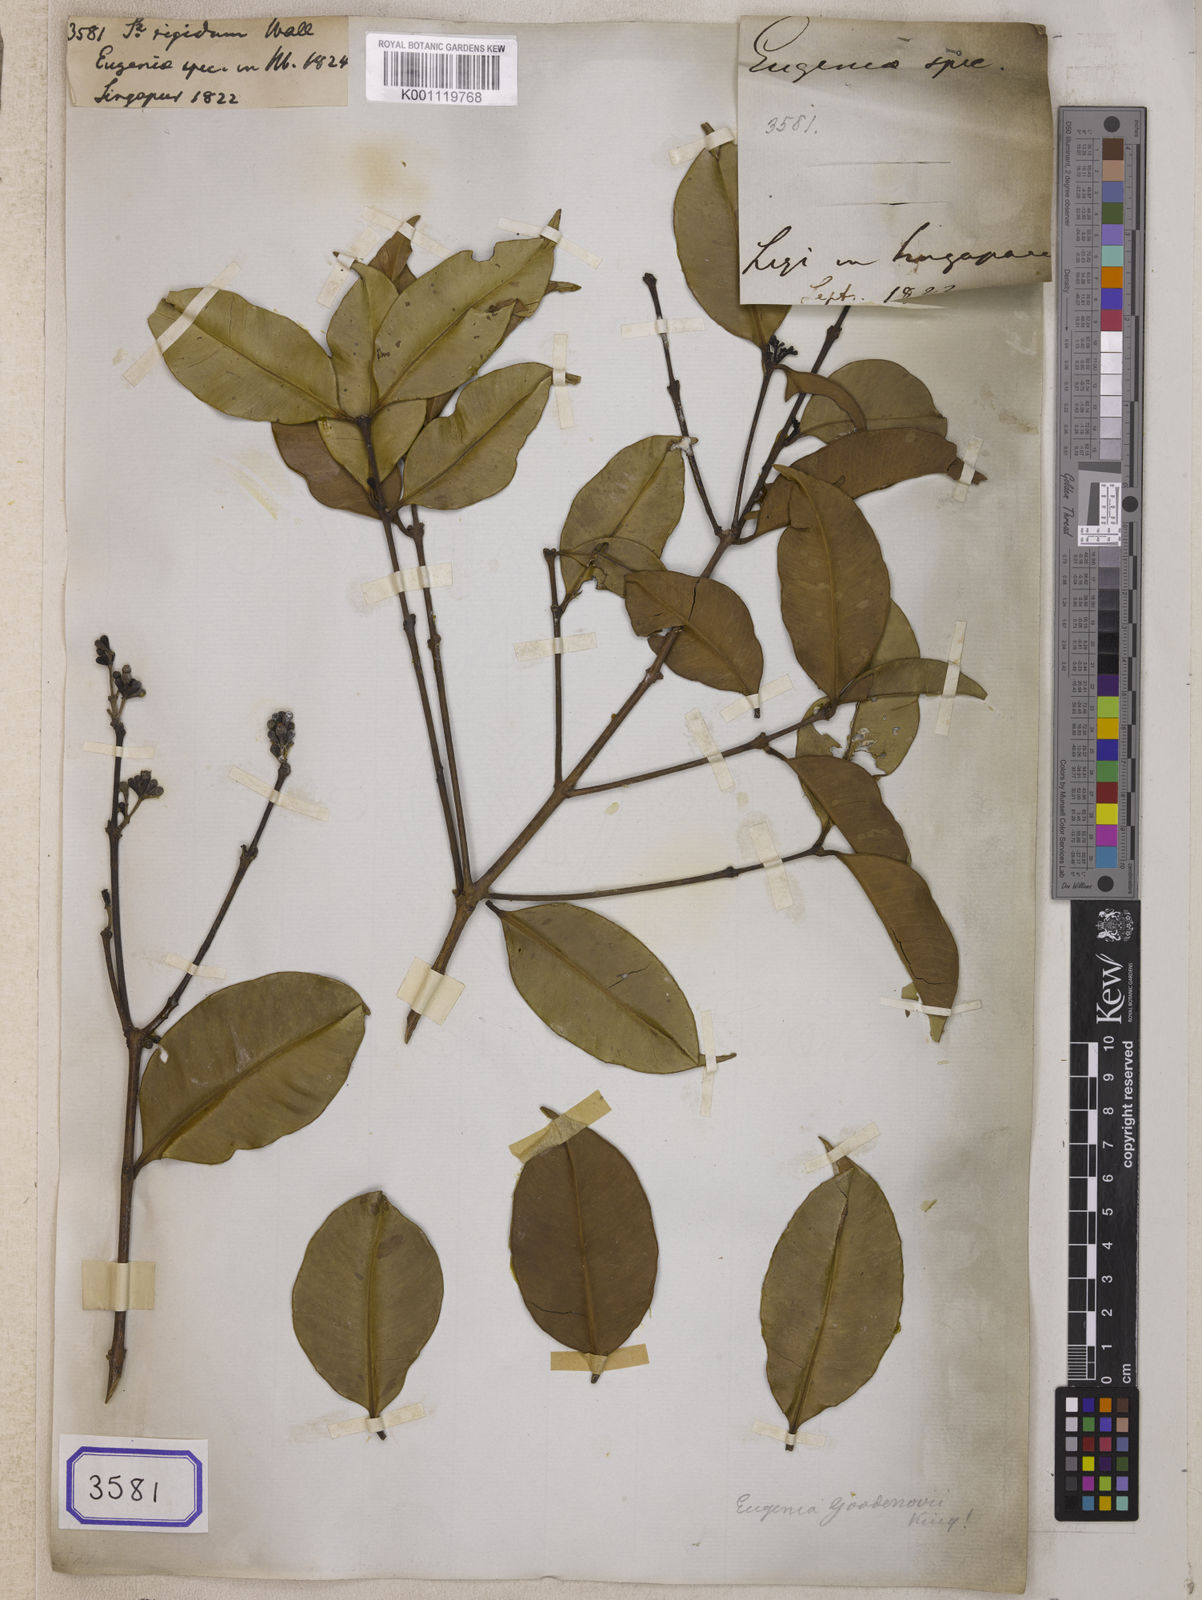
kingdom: Plantae
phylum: Tracheophyta
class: Magnoliopsida
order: Myrtales
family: Myrtaceae
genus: Syzygium
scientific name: Syzygium
